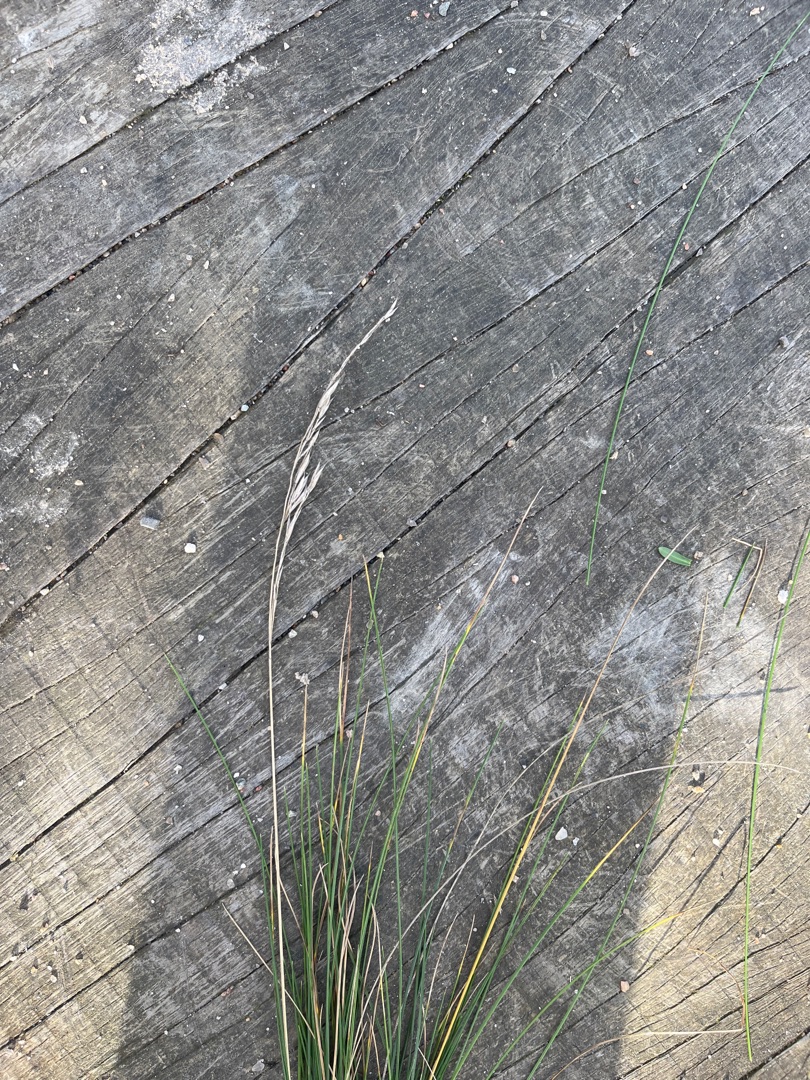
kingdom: Plantae
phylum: Tracheophyta
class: Liliopsida
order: Poales
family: Poaceae
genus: Festuca
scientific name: Festuca rubra
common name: Rød svingel
